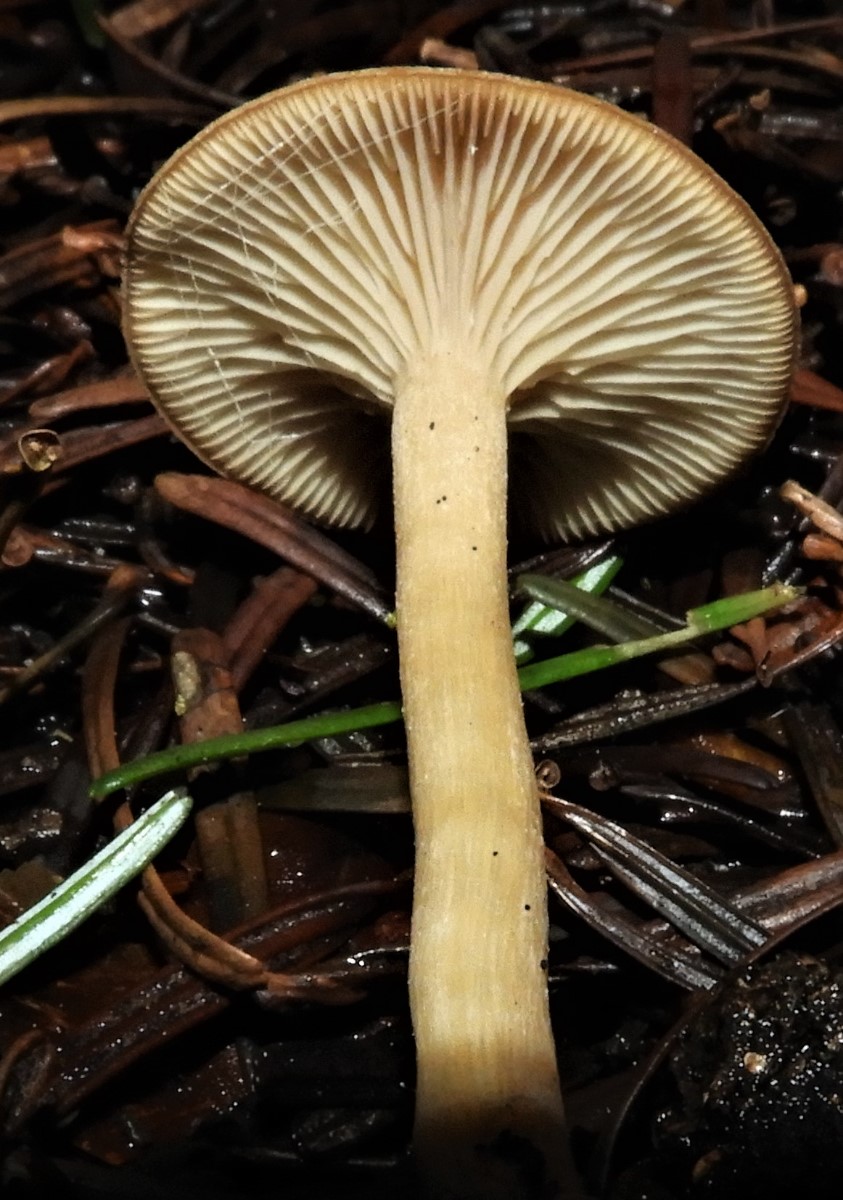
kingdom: Fungi
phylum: Basidiomycota
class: Agaricomycetes
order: Agaricales
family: Tricholomataceae
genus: Clitocybe
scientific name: Clitocybe
